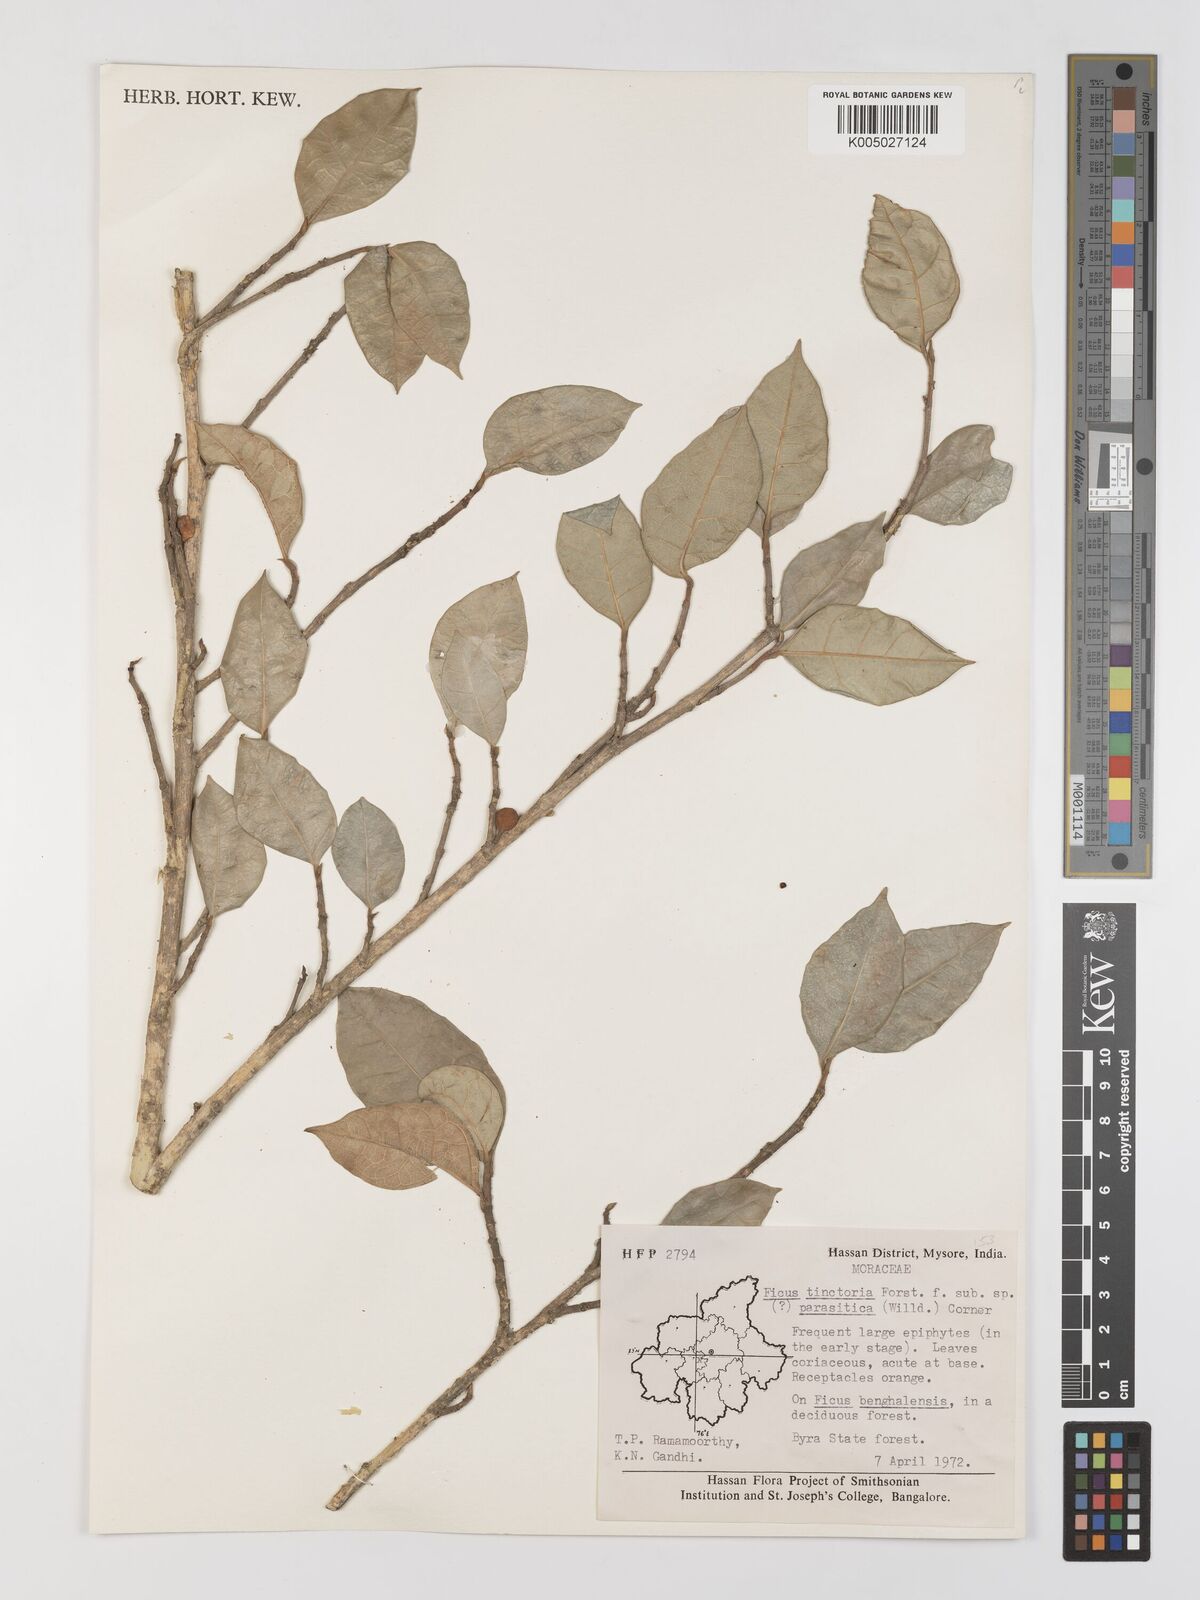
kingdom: Plantae
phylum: Tracheophyta
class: Magnoliopsida
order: Rosales
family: Moraceae
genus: Ficus
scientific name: Ficus tinctoria
